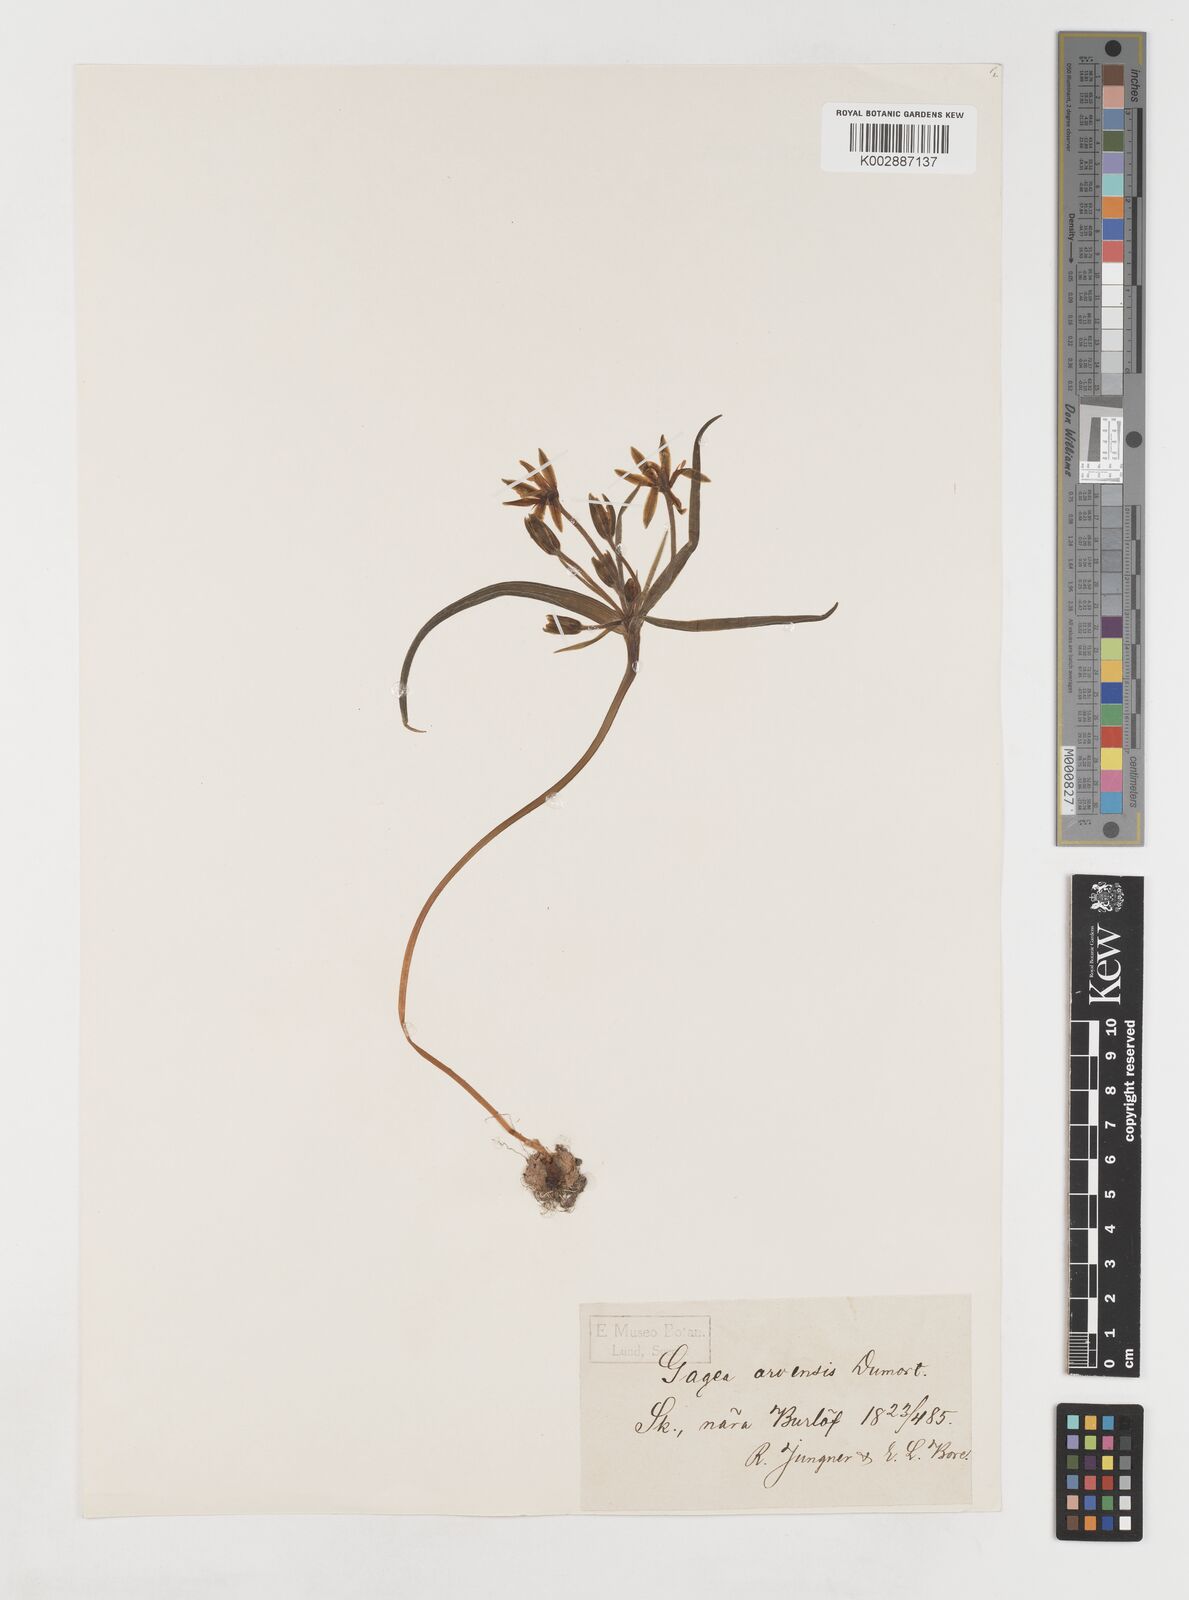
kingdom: Plantae
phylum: Tracheophyta
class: Liliopsida
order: Liliales
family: Liliaceae
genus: Gagea
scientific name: Gagea minima
